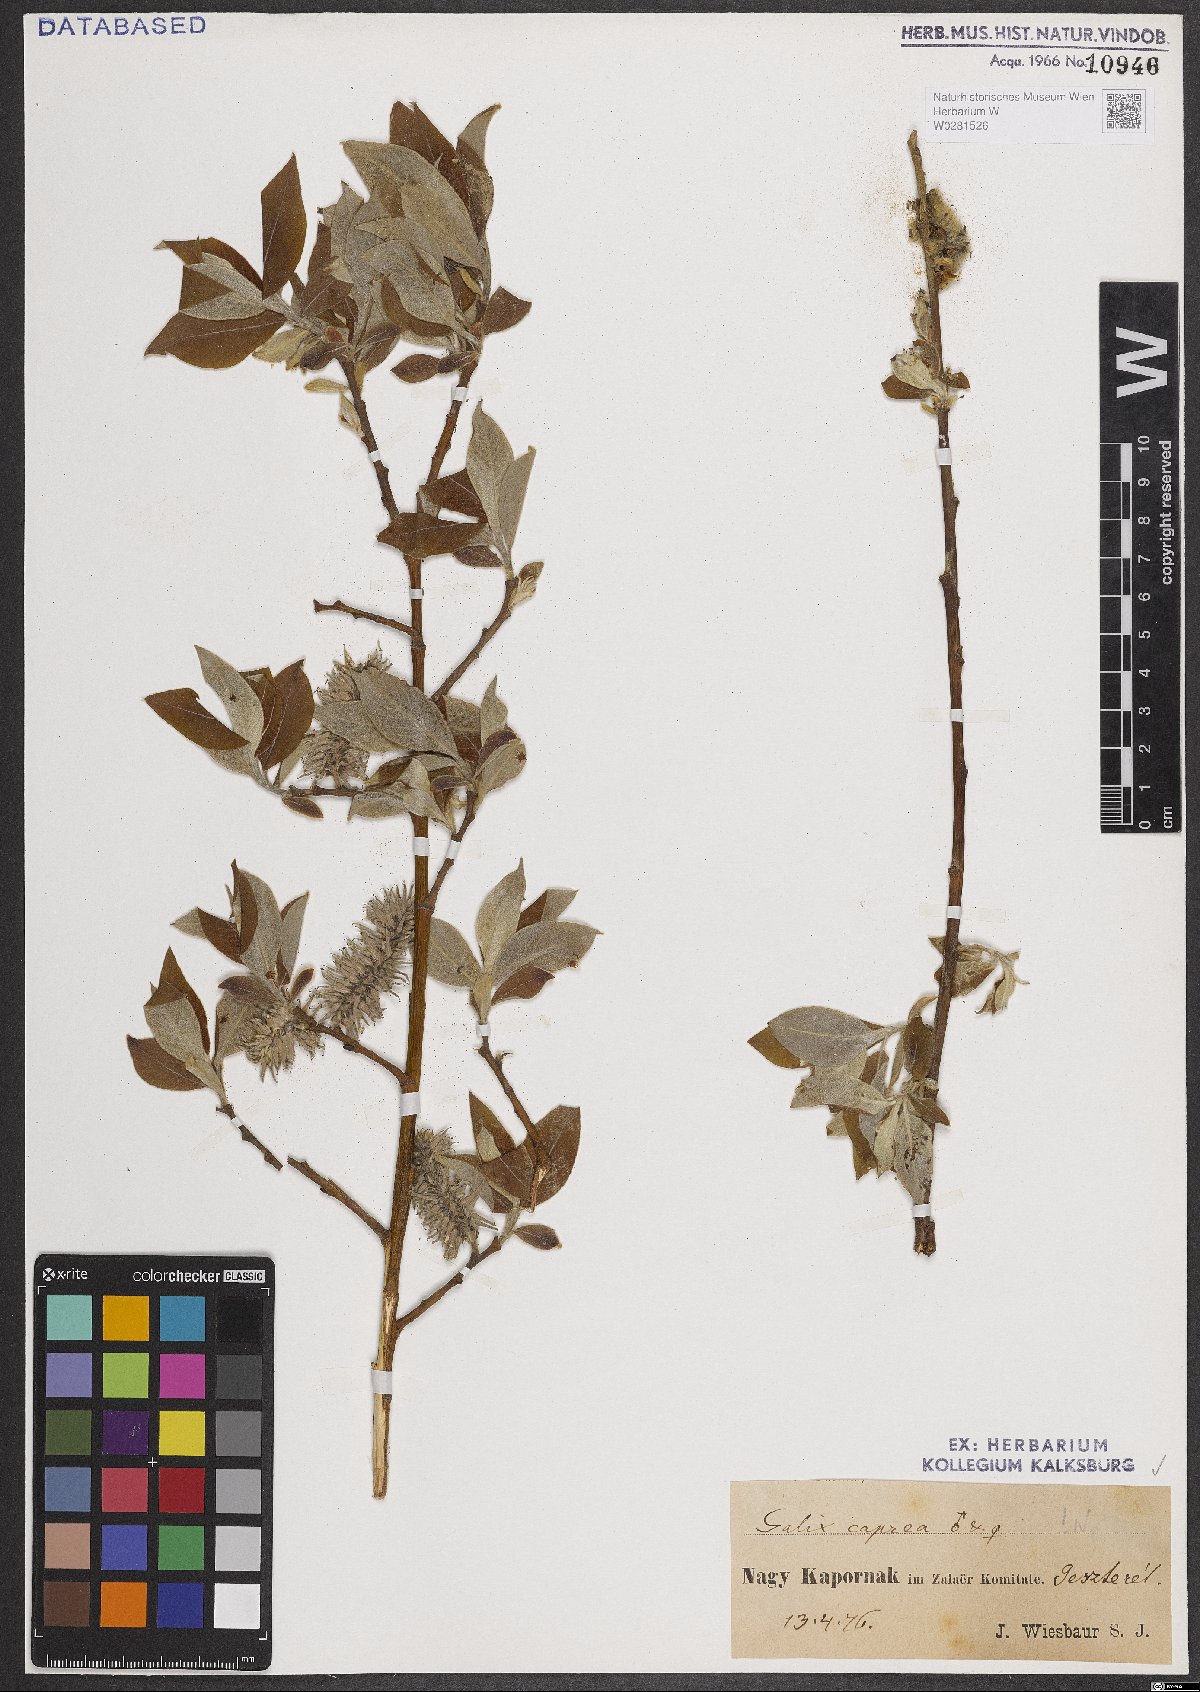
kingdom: Plantae
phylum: Tracheophyta
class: Magnoliopsida
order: Malpighiales
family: Salicaceae
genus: Salix
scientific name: Salix caprea
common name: Goat willow
